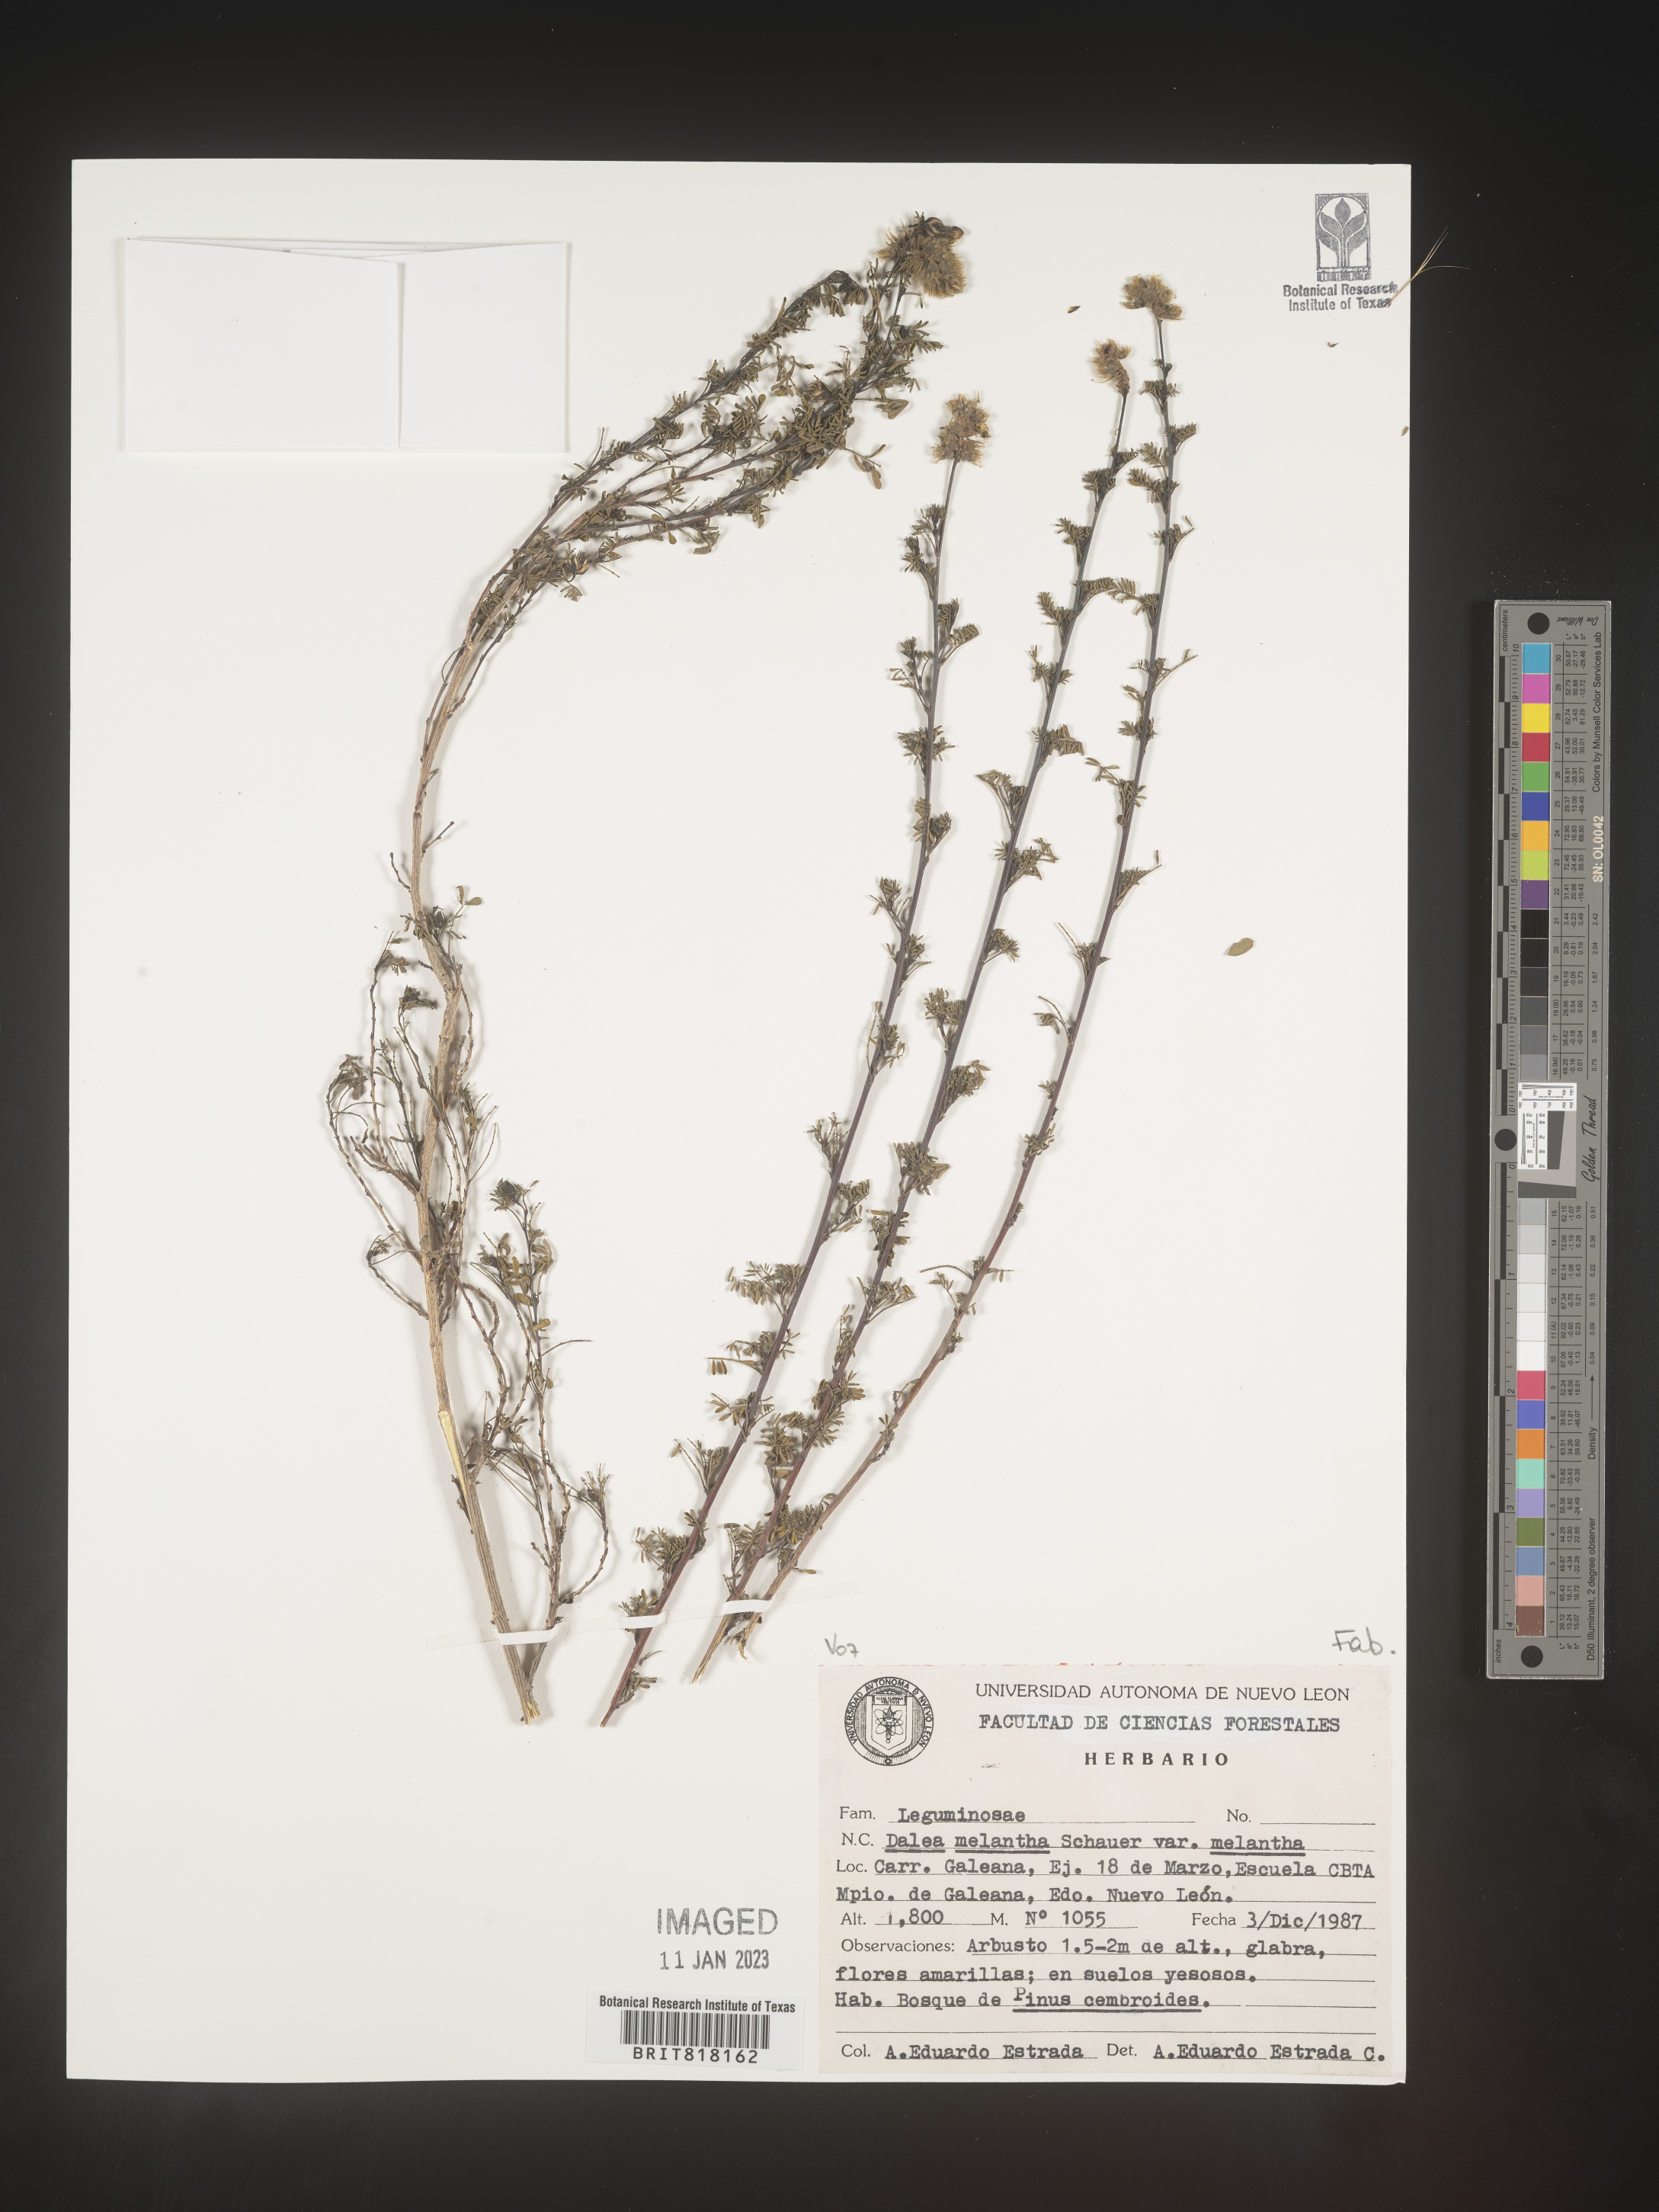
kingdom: Plantae
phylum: Tracheophyta
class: Magnoliopsida
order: Fabales
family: Fabaceae
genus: Dalea
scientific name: Dalea
